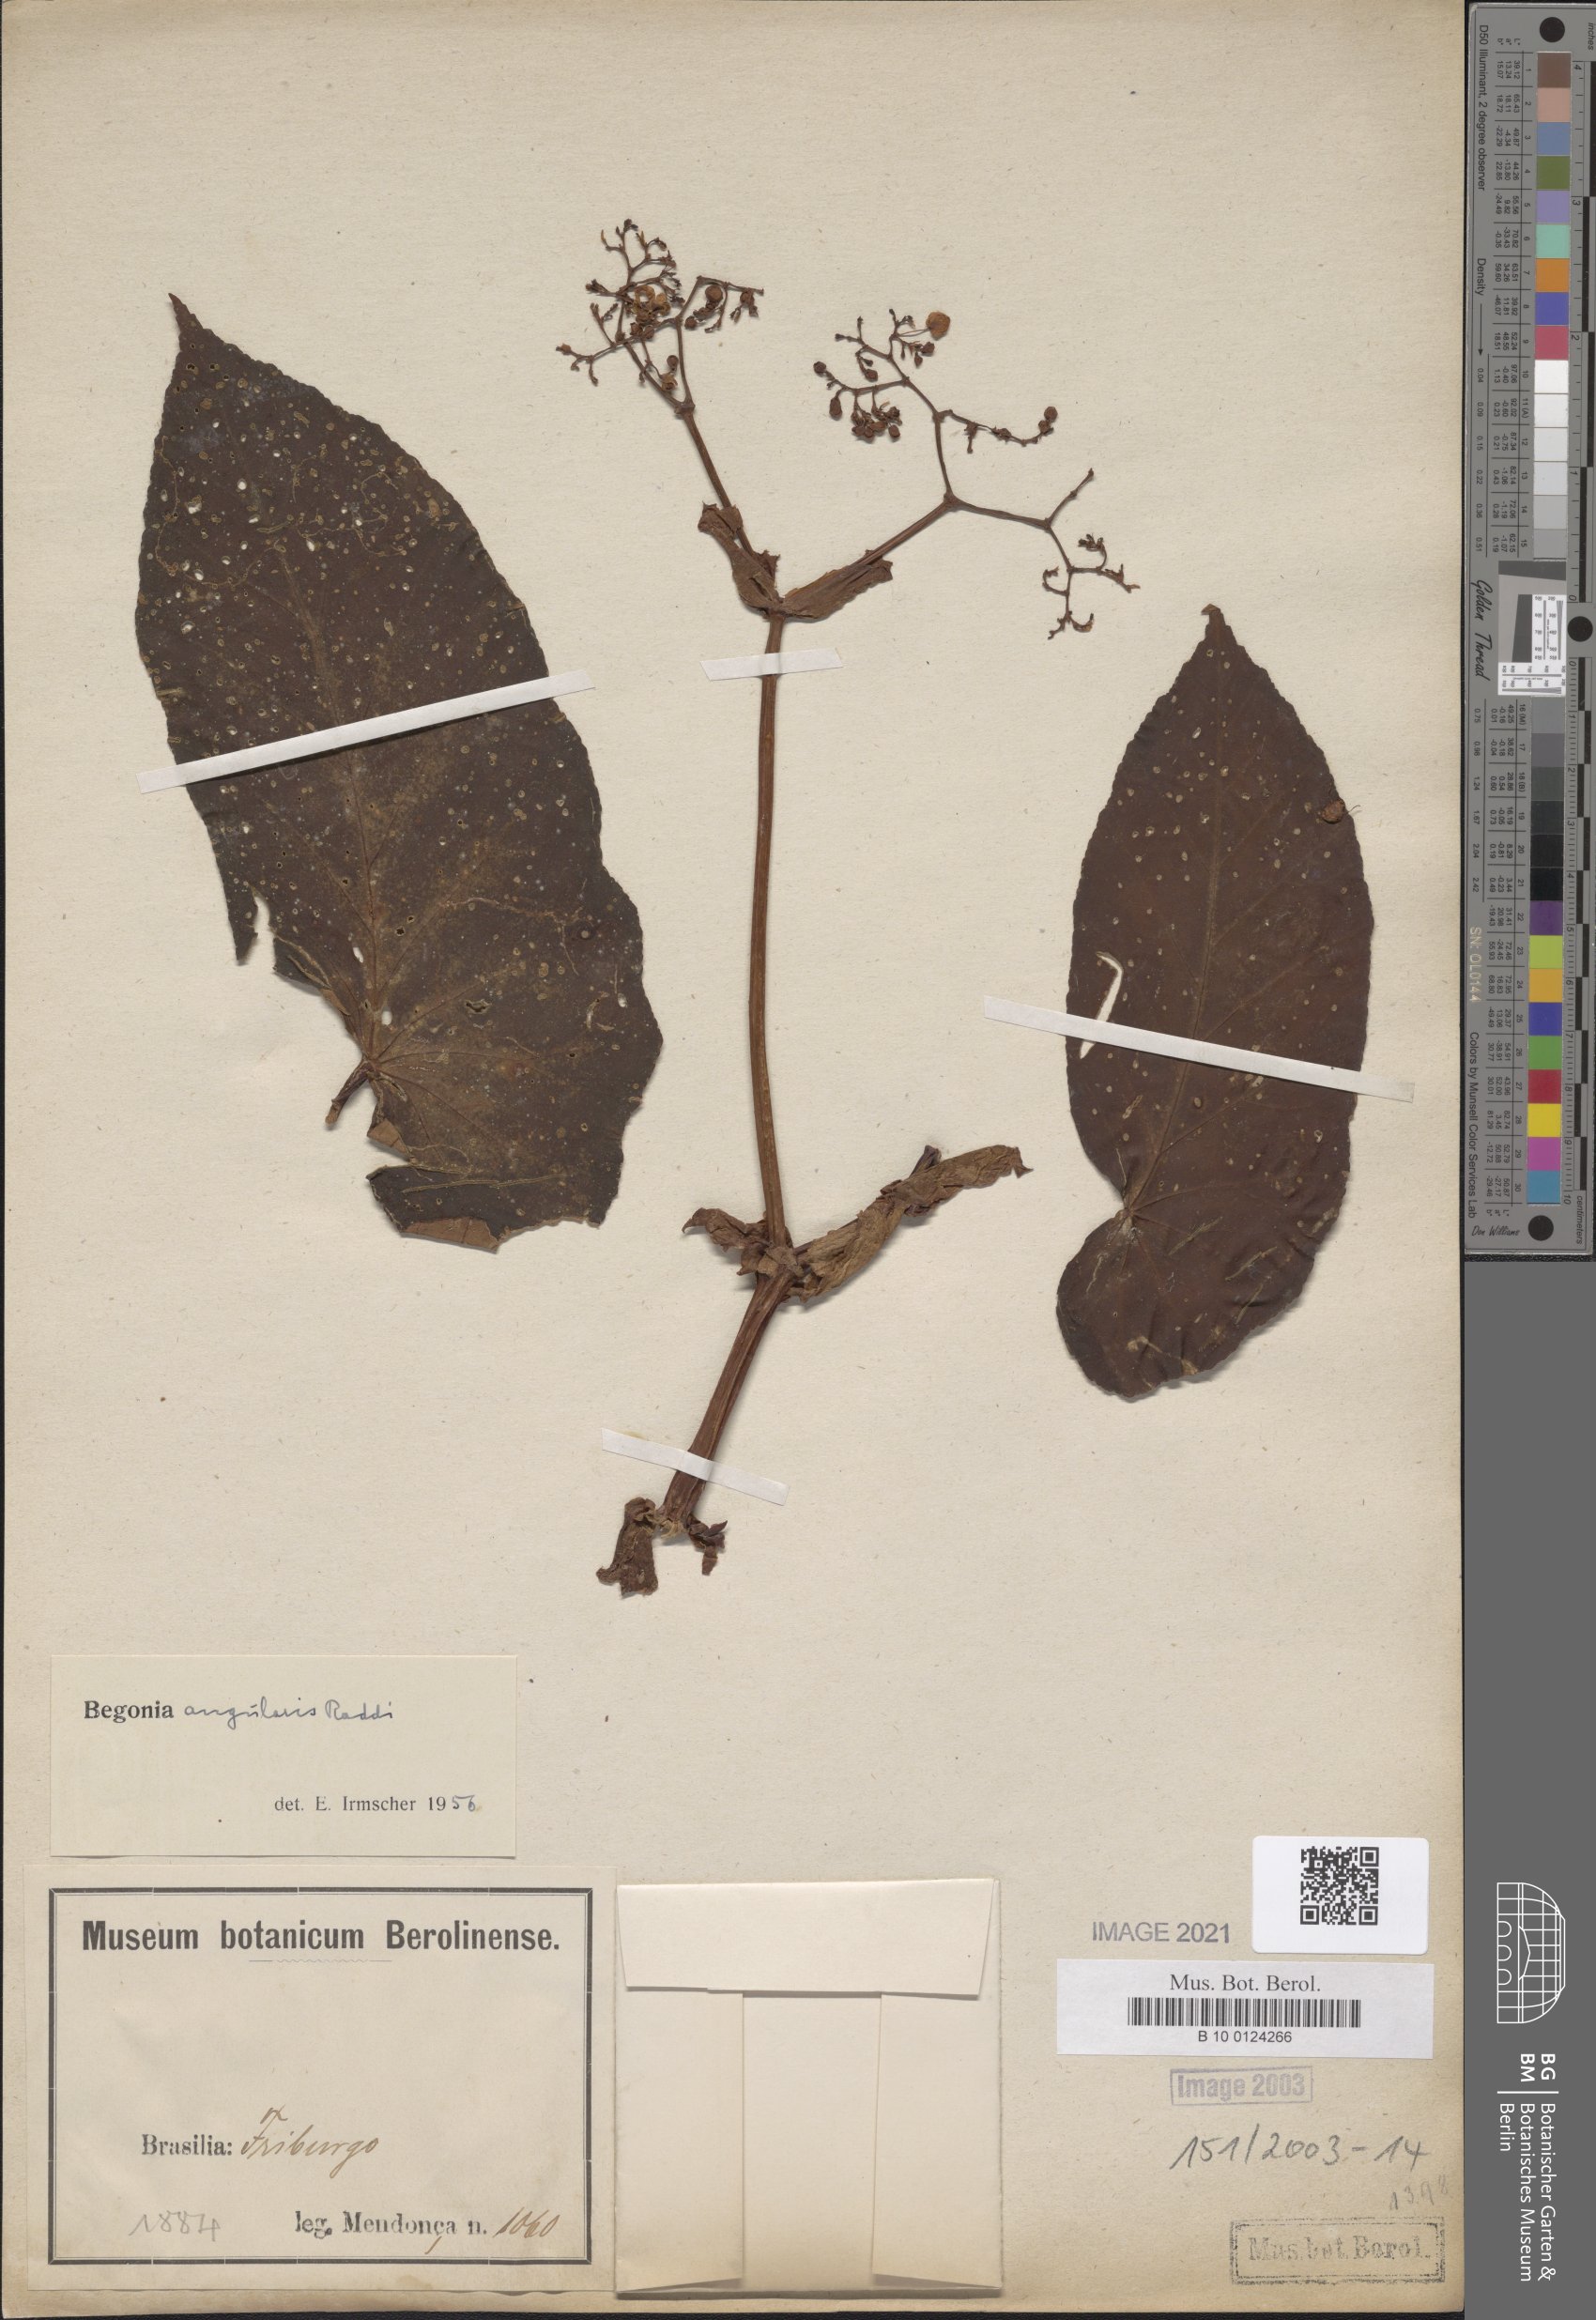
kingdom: Plantae
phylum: Tracheophyta
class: Magnoliopsida
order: Cucurbitales
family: Begoniaceae
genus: Begonia
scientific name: Begonia angularis
